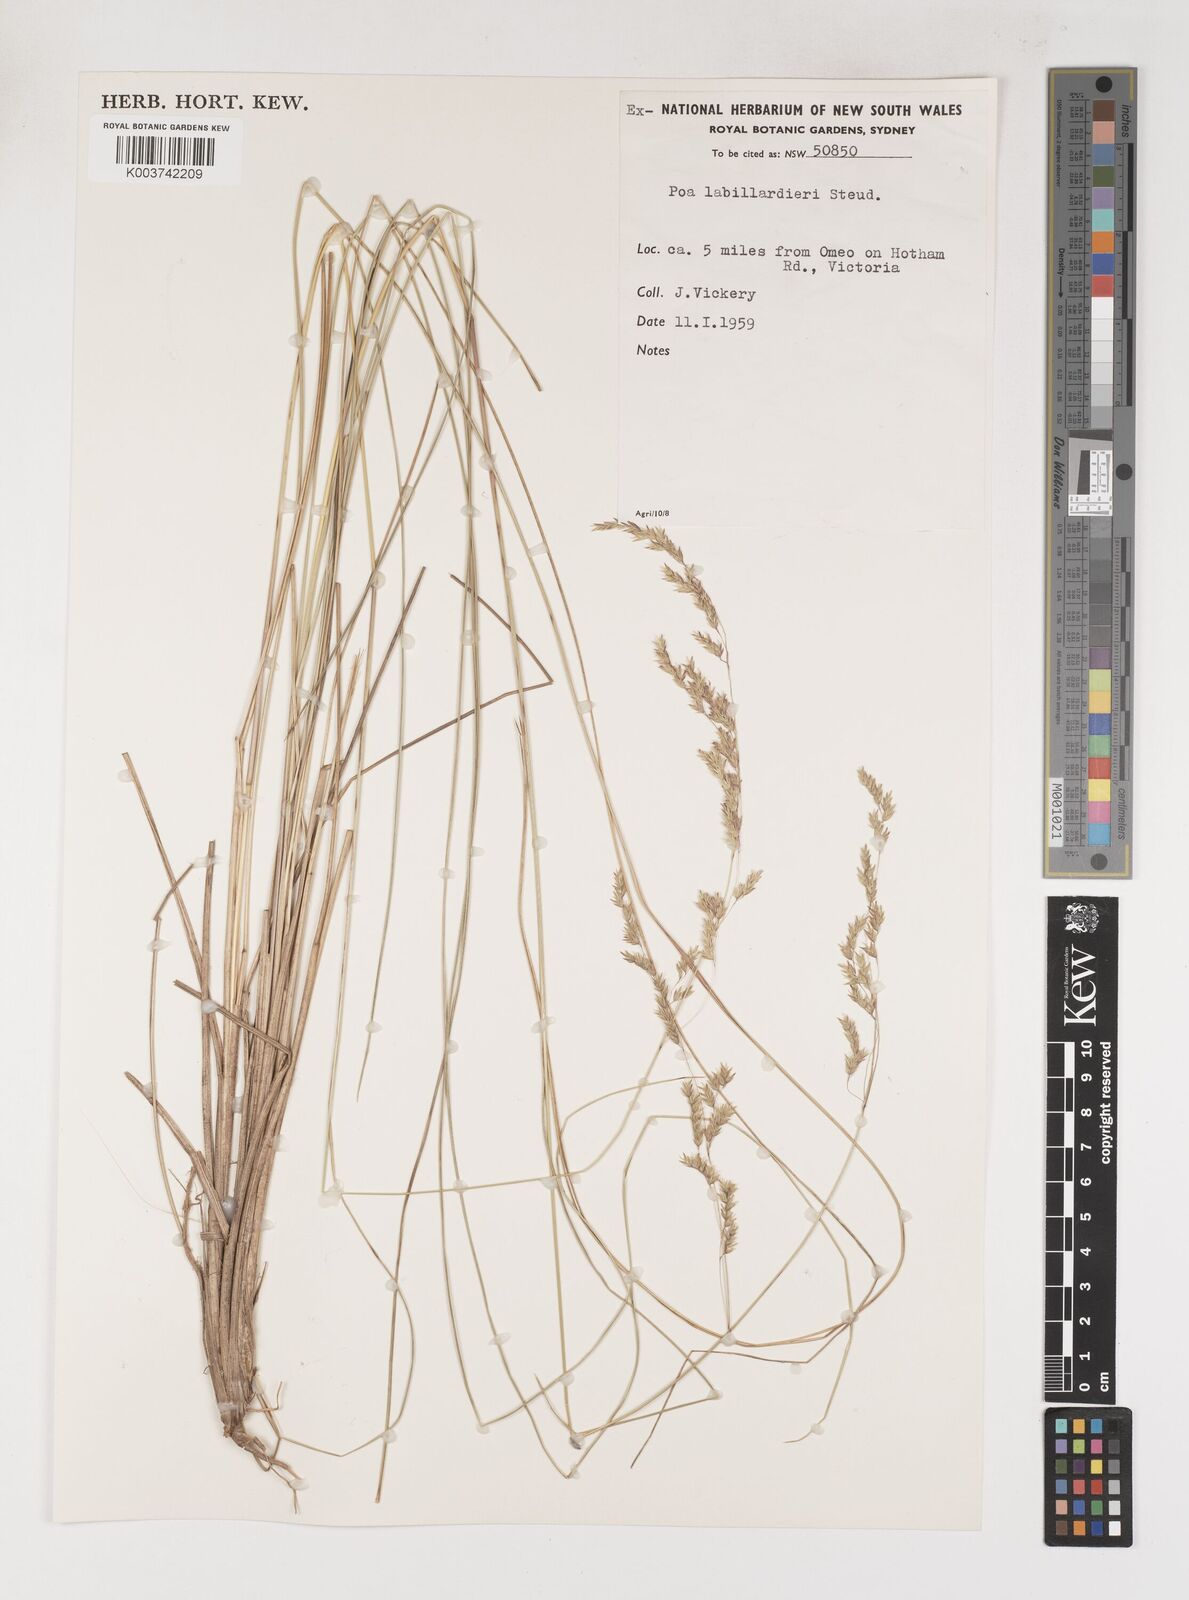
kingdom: Plantae
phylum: Tracheophyta
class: Liliopsida
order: Poales
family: Poaceae
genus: Poa
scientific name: Poa labillardierei
